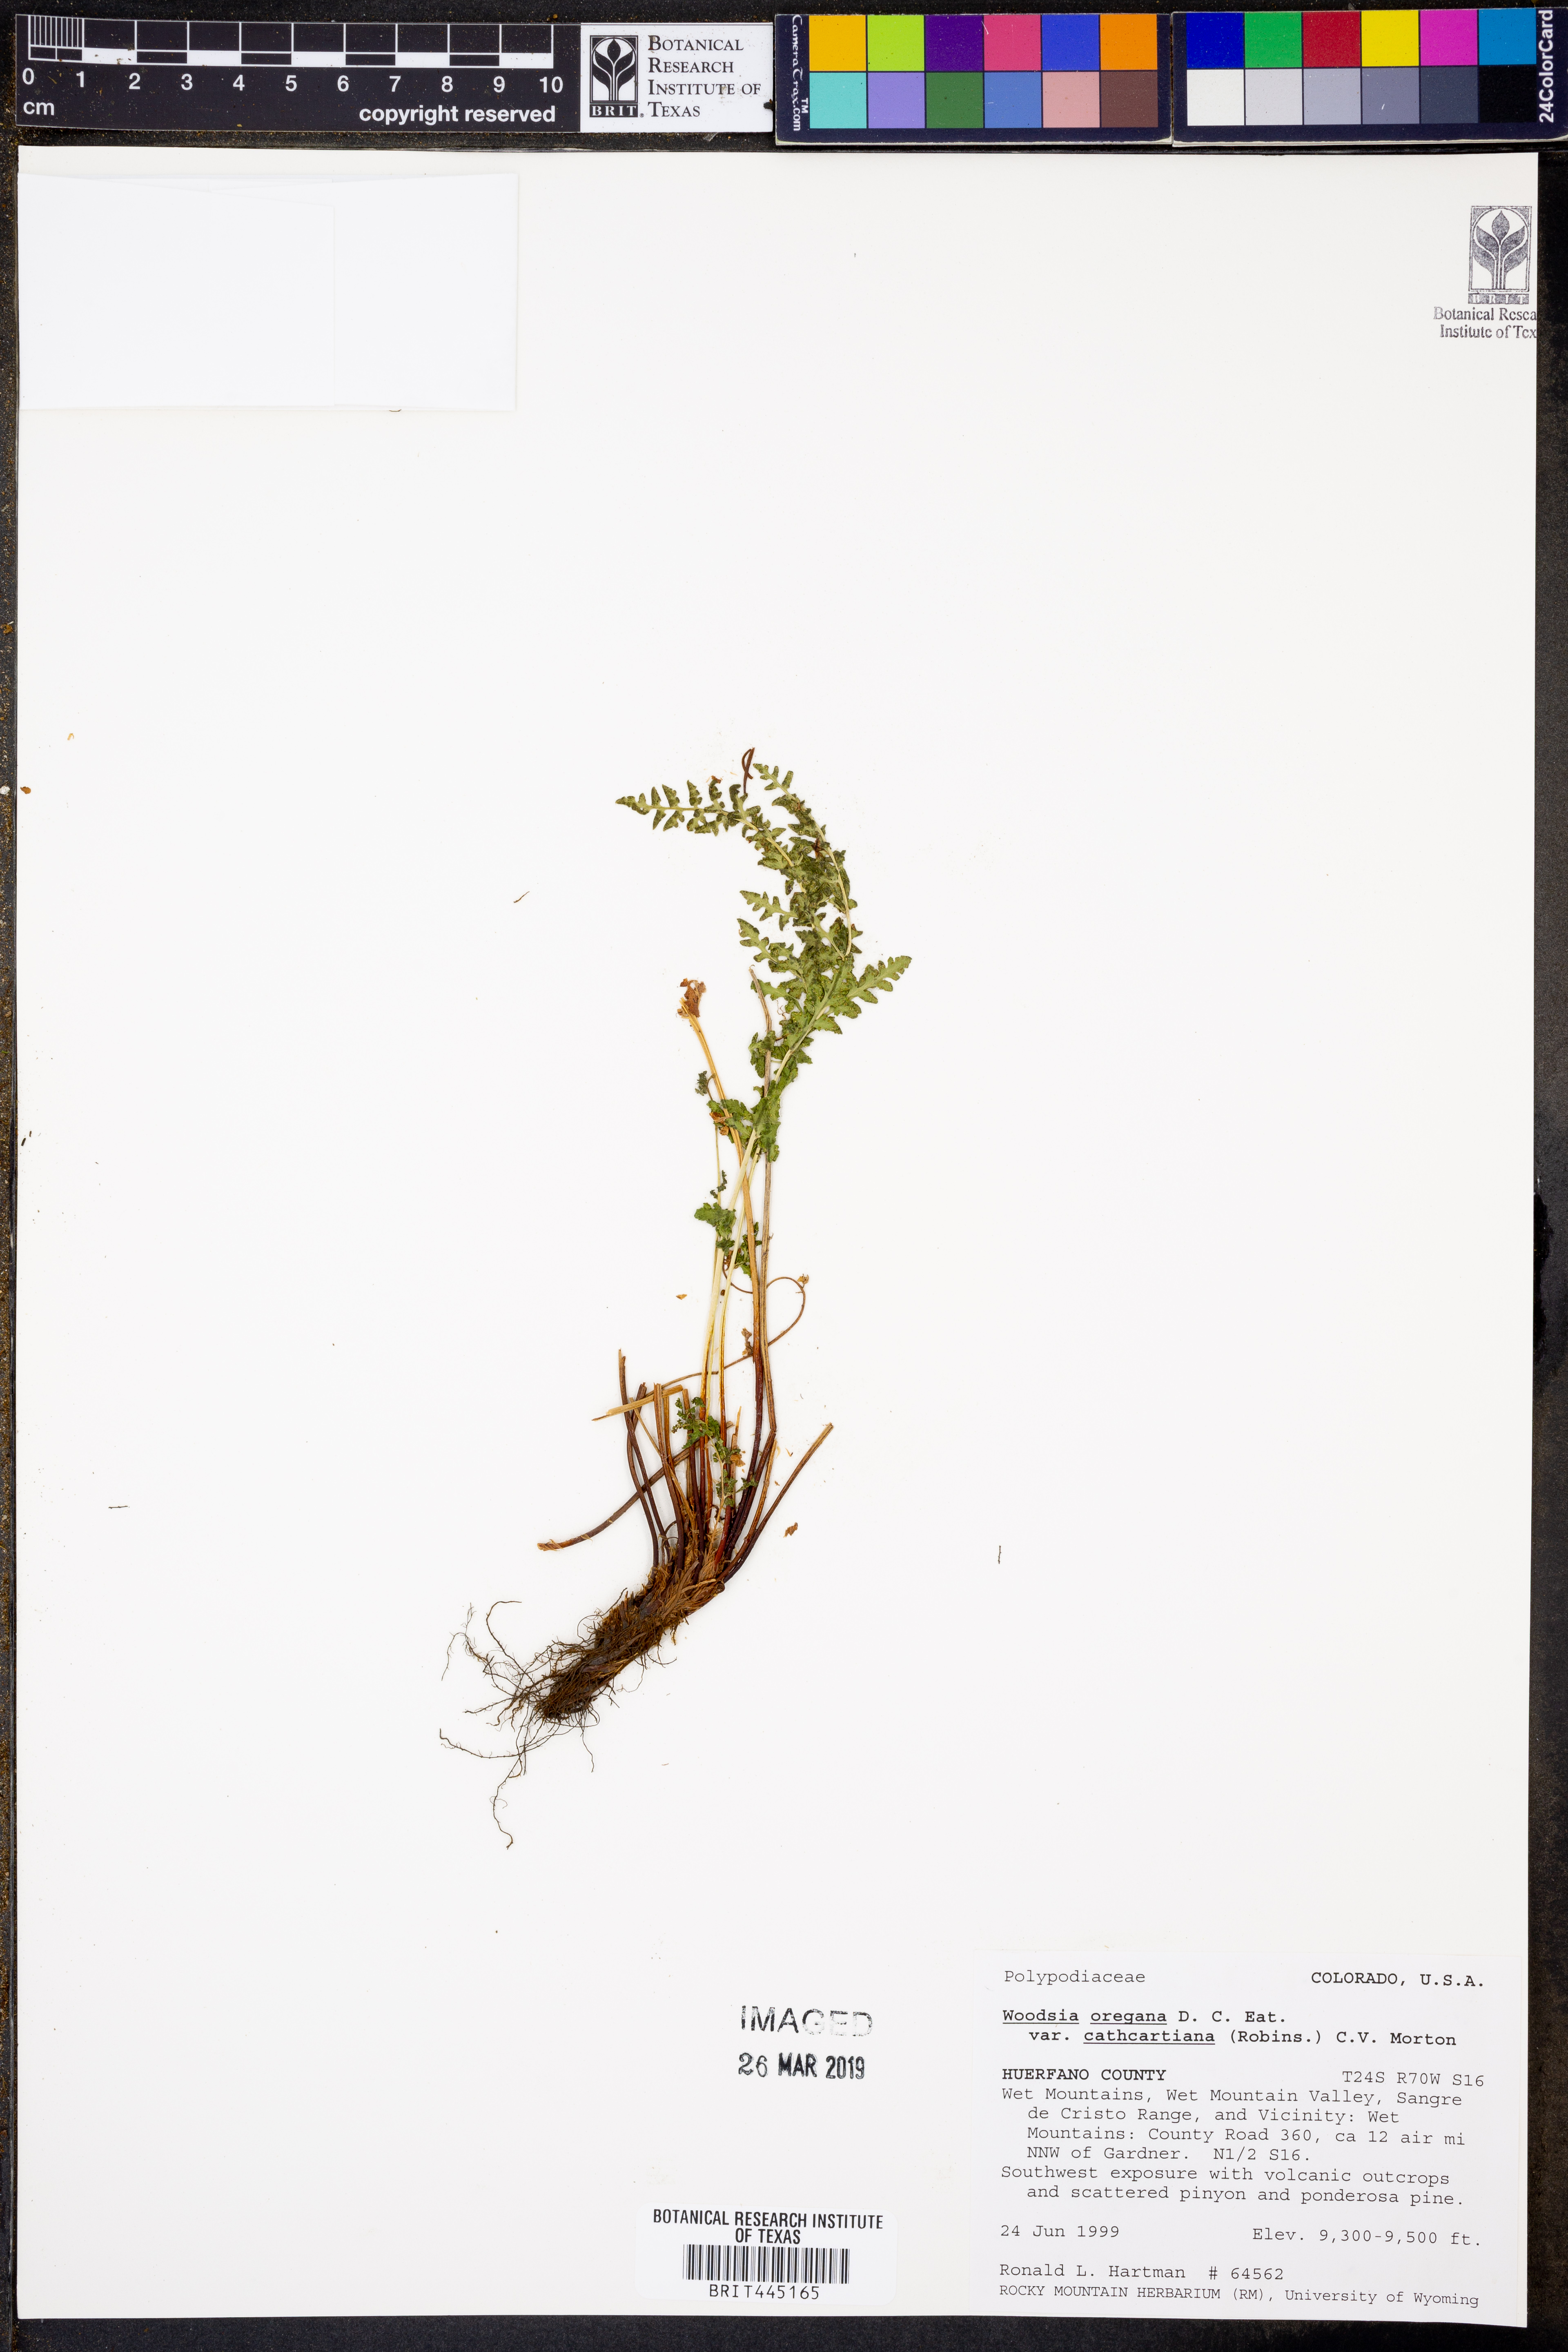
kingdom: Plantae
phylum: Tracheophyta
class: Polypodiopsida
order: Polypodiales
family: Woodsiaceae
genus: Physematium
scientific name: Physematium oreganum
